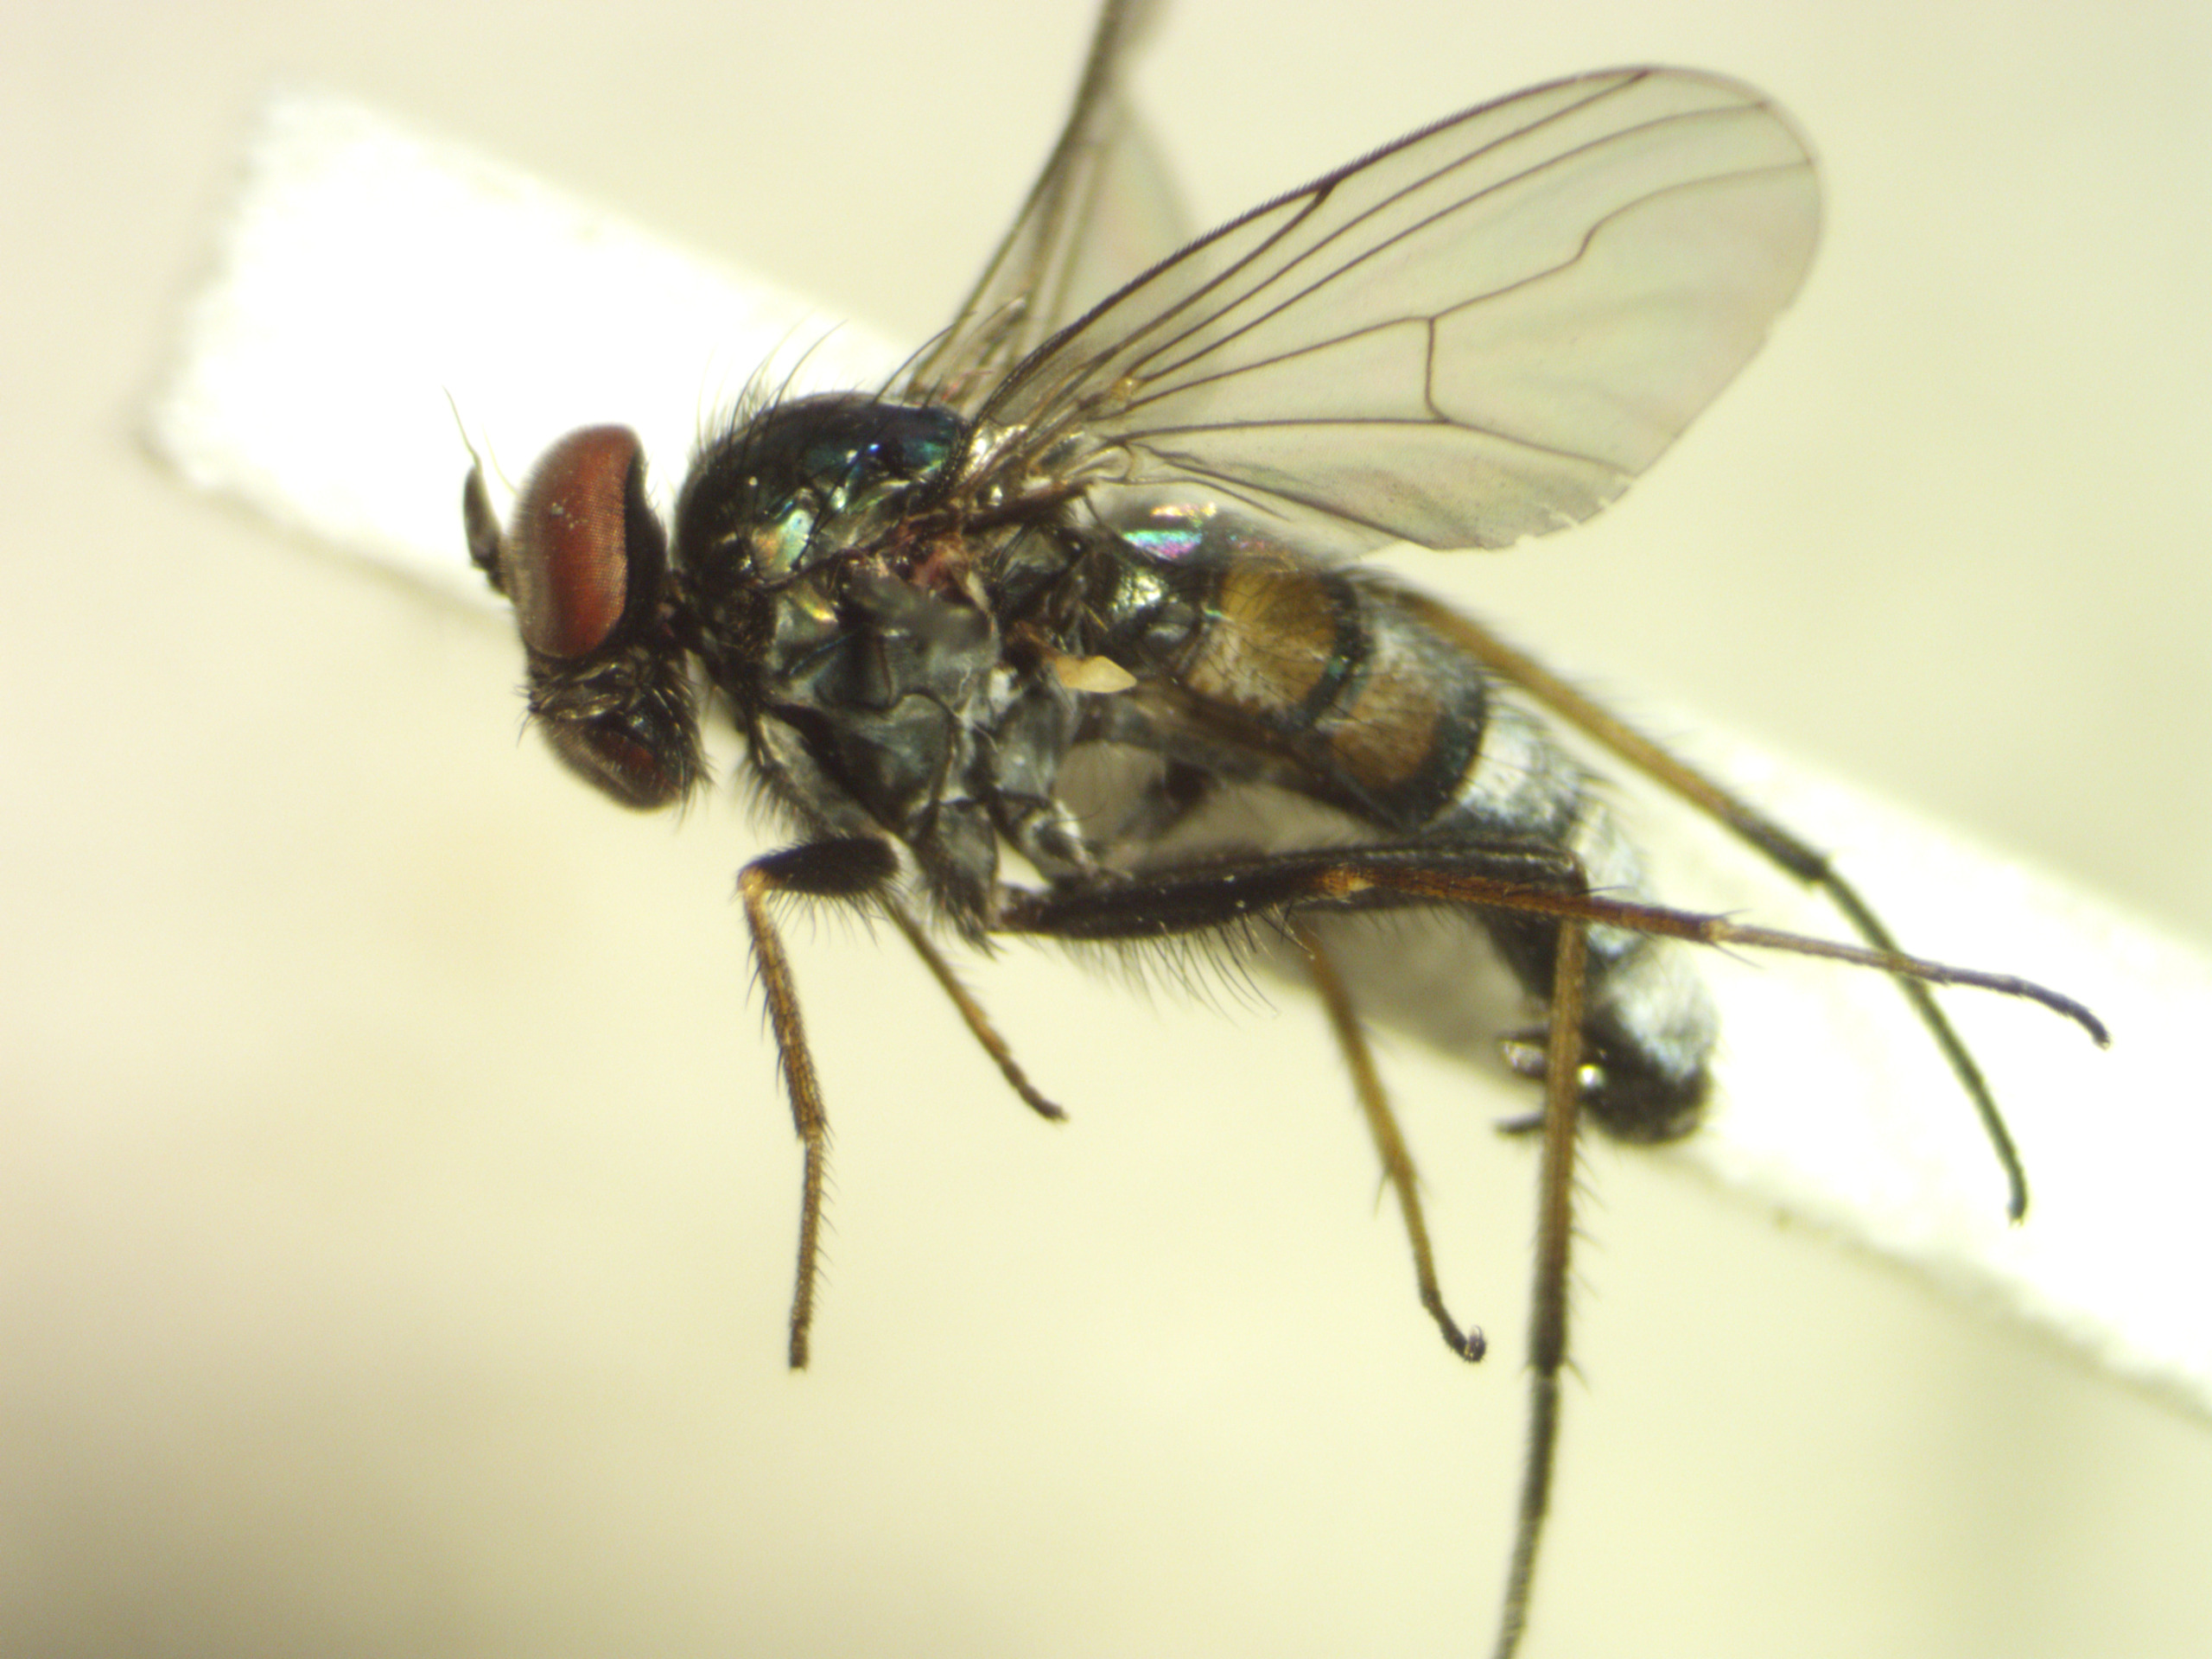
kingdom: Animalia
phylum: Arthropoda
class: Insecta
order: Diptera
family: Dolichopodidae
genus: Argyra
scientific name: Argyra diaphana
